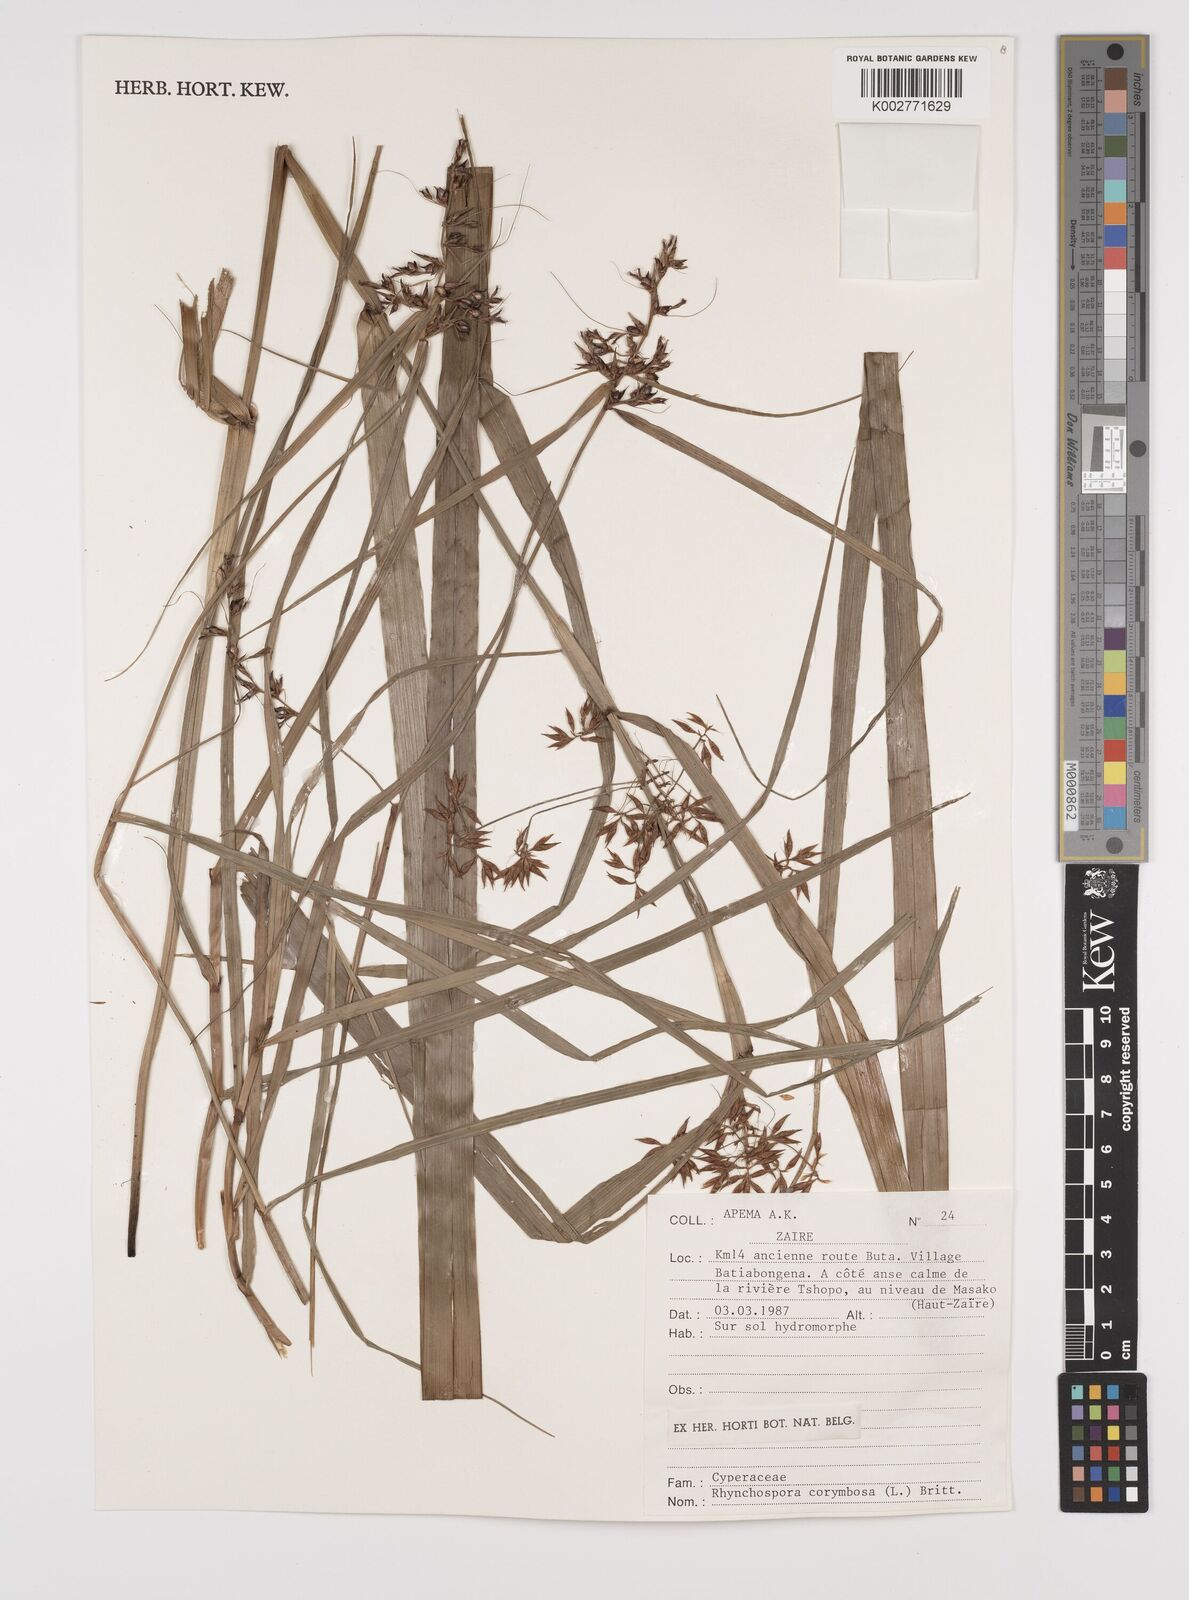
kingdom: Plantae
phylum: Tracheophyta
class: Liliopsida
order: Poales
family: Cyperaceae
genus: Rhynchospora
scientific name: Rhynchospora corymbosa
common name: Golden beak sedge
